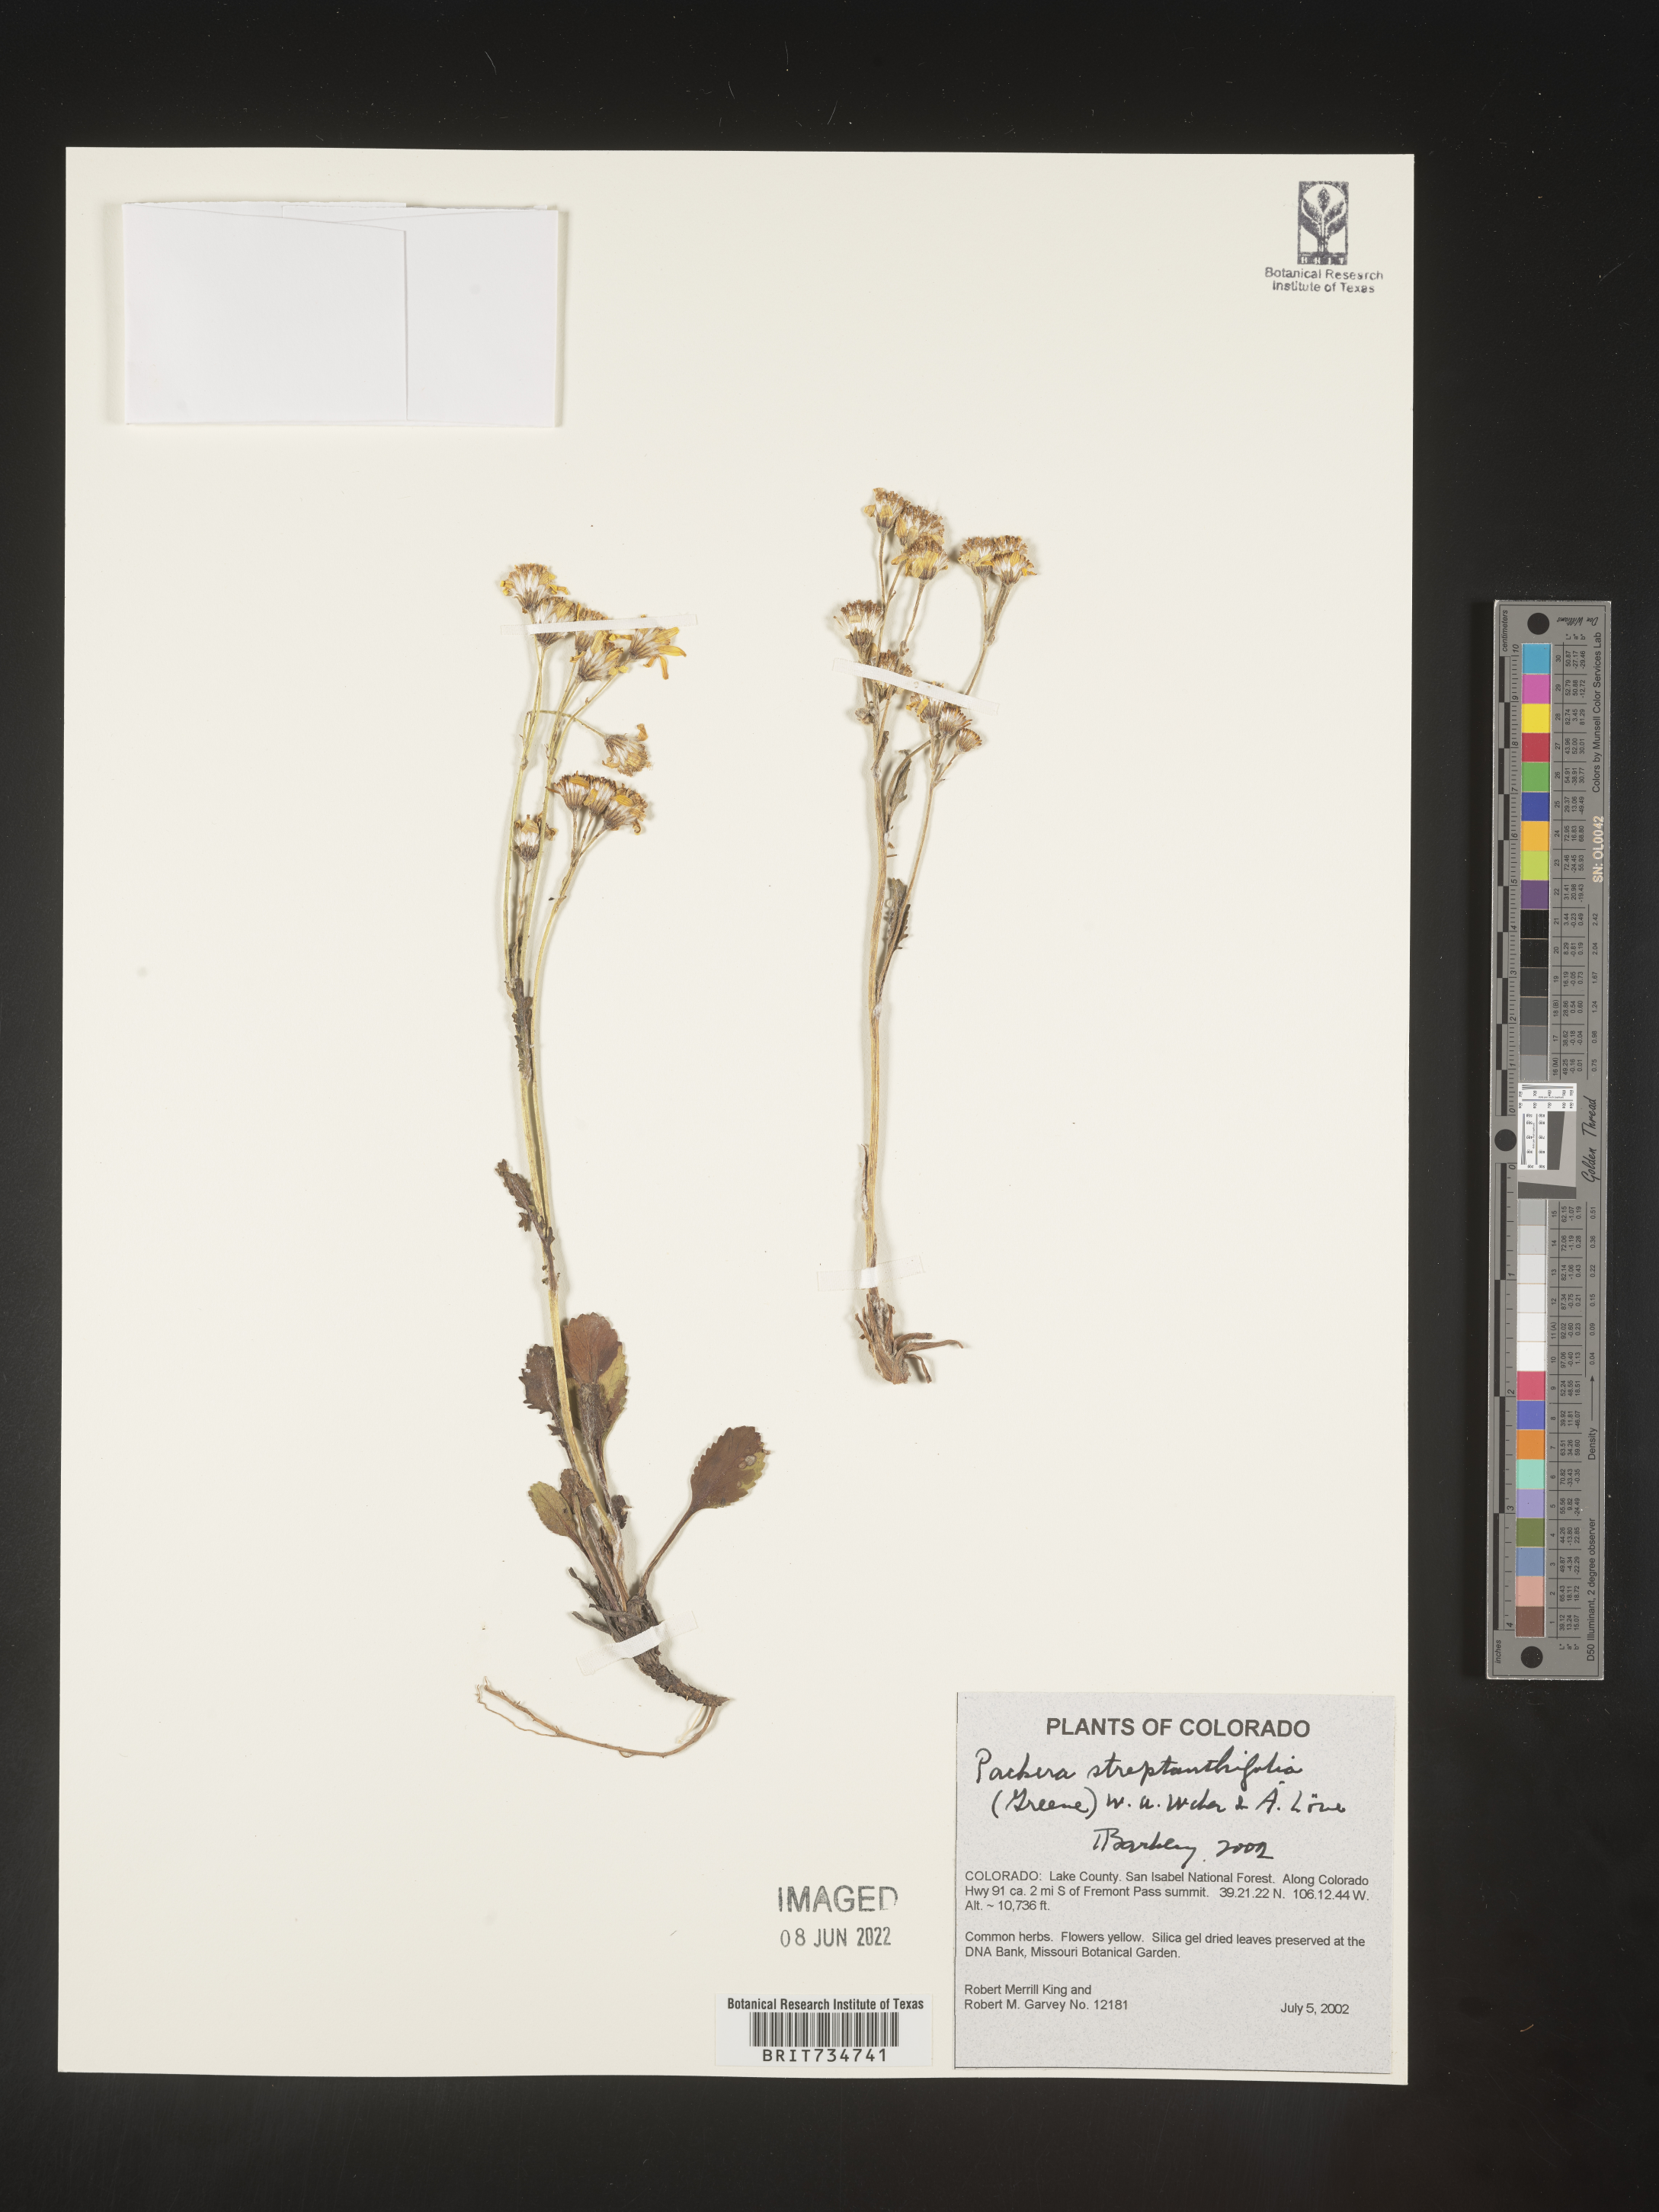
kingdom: Plantae
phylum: Tracheophyta
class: Magnoliopsida
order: Asterales
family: Asteraceae
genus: Packera
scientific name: Packera streptanthifolia
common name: Rocky mountain butterweed
